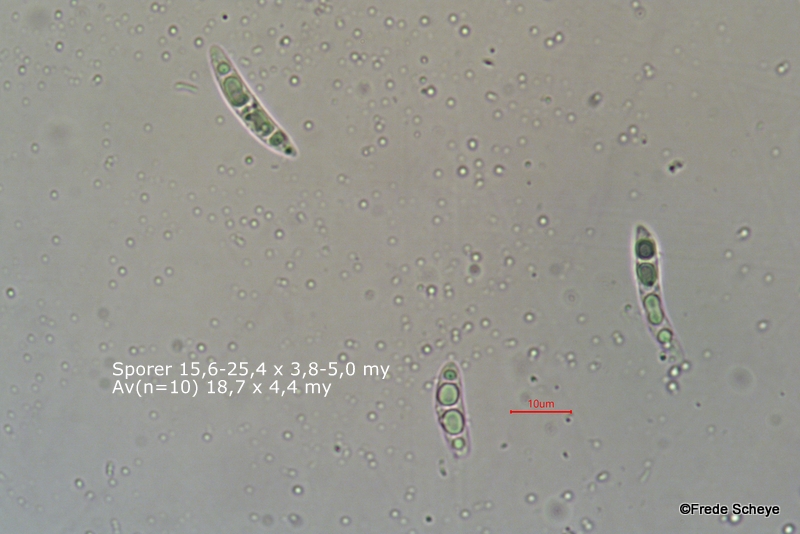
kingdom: Fungi
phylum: Ascomycota
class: Leotiomycetes
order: Helotiales
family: Hyaloscyphaceae
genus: Polydesmia
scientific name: Polydesmia pruinosa
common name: dunskive
